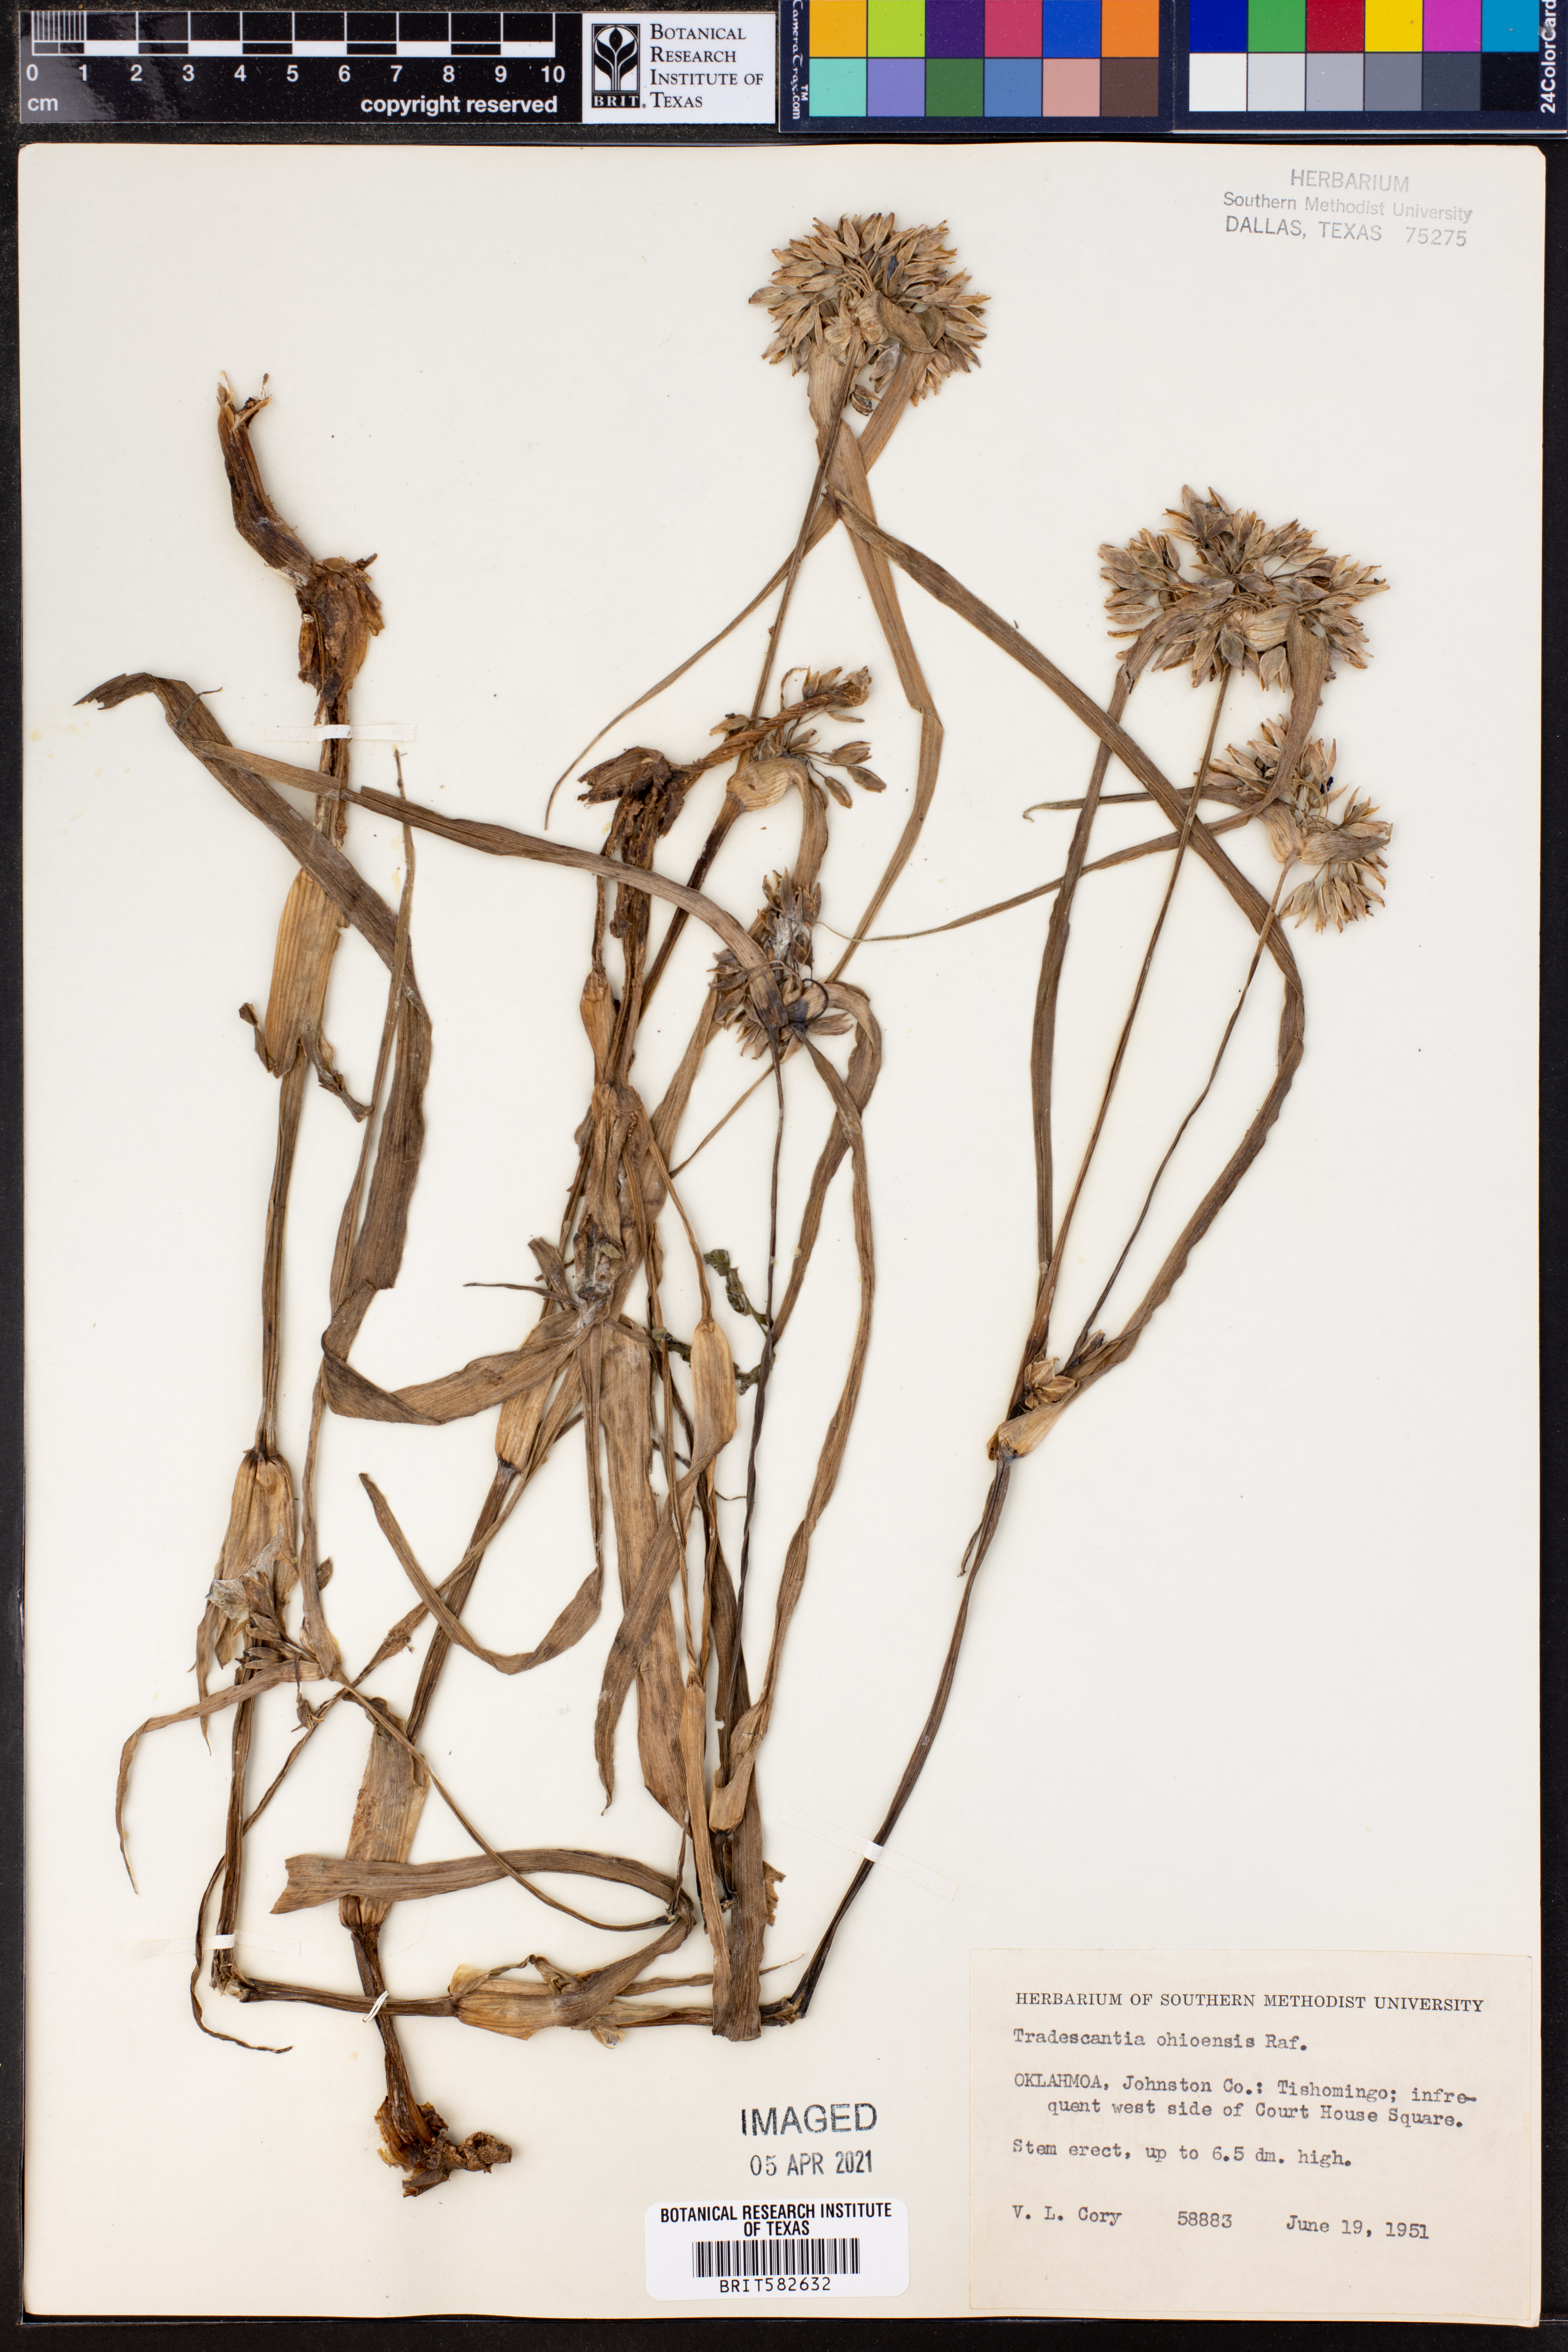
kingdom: Plantae
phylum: Tracheophyta
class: Liliopsida
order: Commelinales
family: Commelinaceae
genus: Tradescantia
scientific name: Tradescantia ohiensis
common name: Ohio spiderwort
